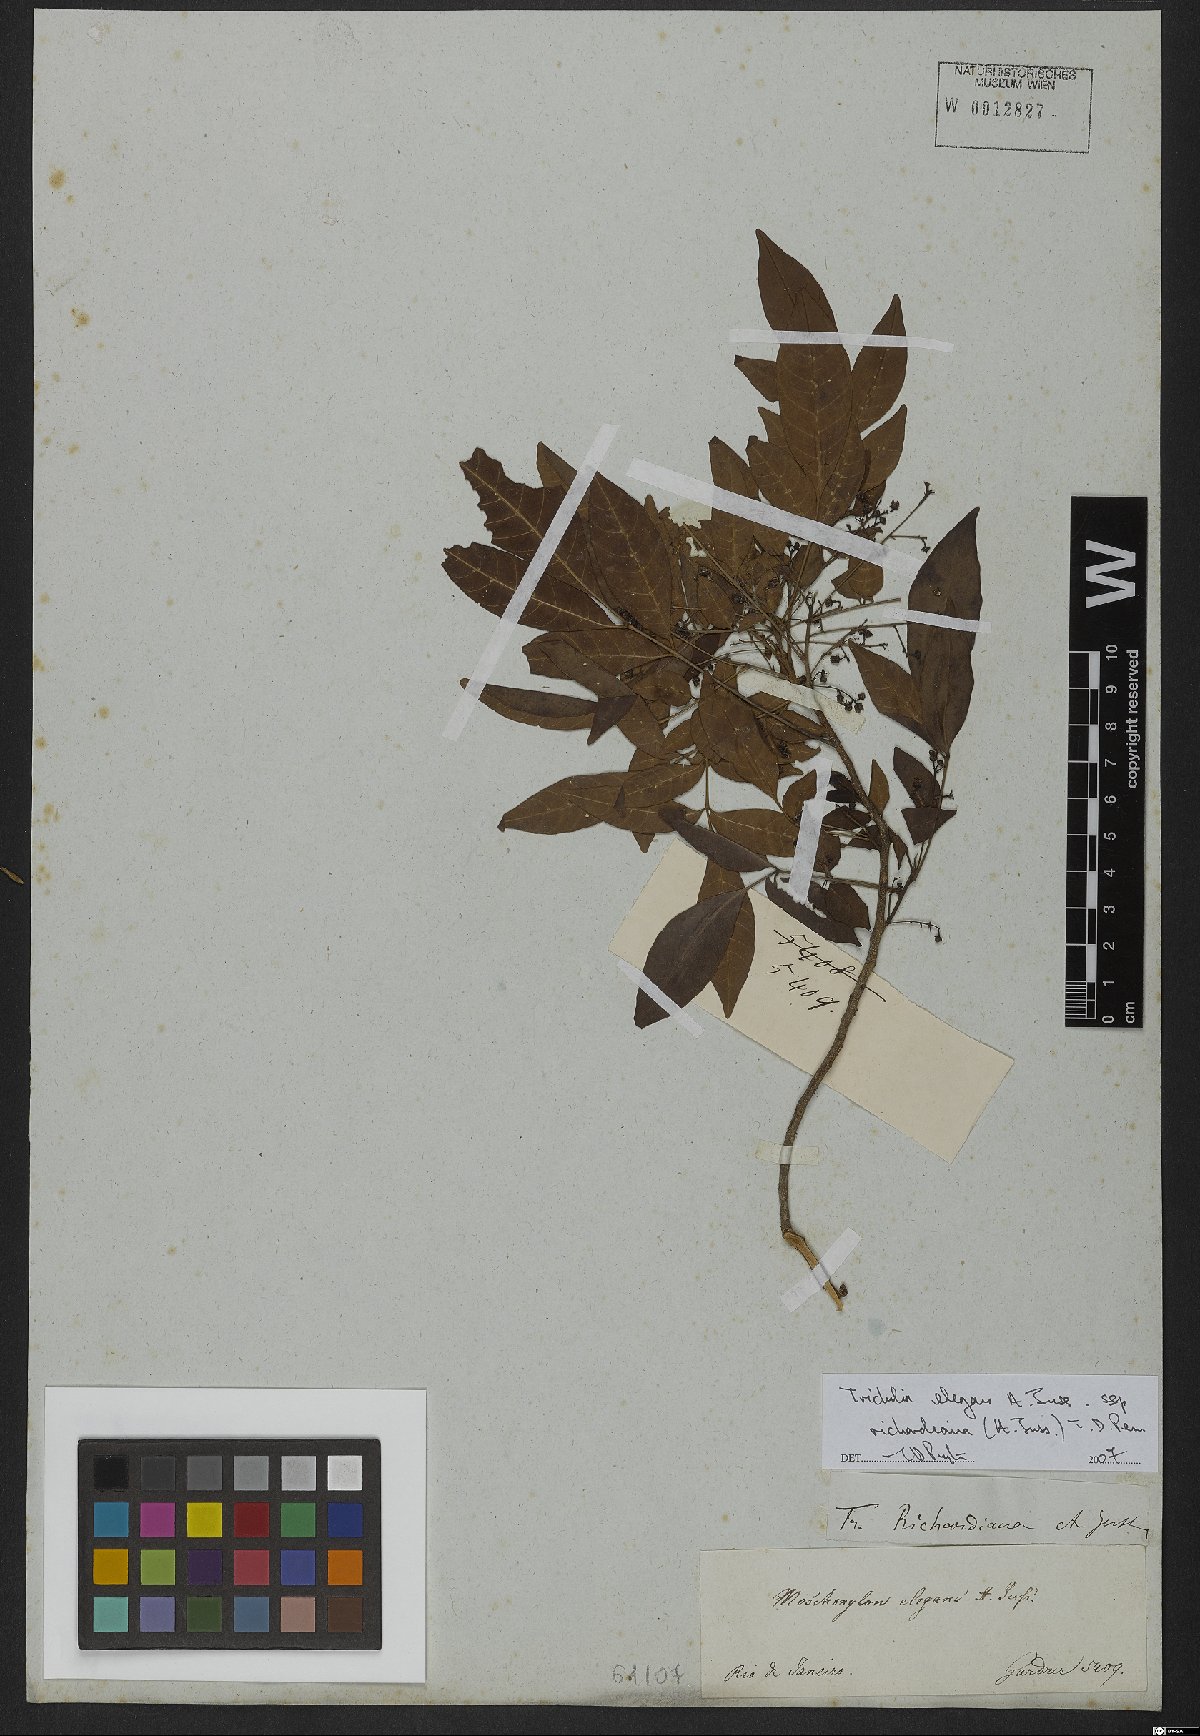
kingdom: Plantae
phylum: Tracheophyta
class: Magnoliopsida
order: Sapindales
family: Meliaceae
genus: Trichilia
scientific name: Trichilia elegans
